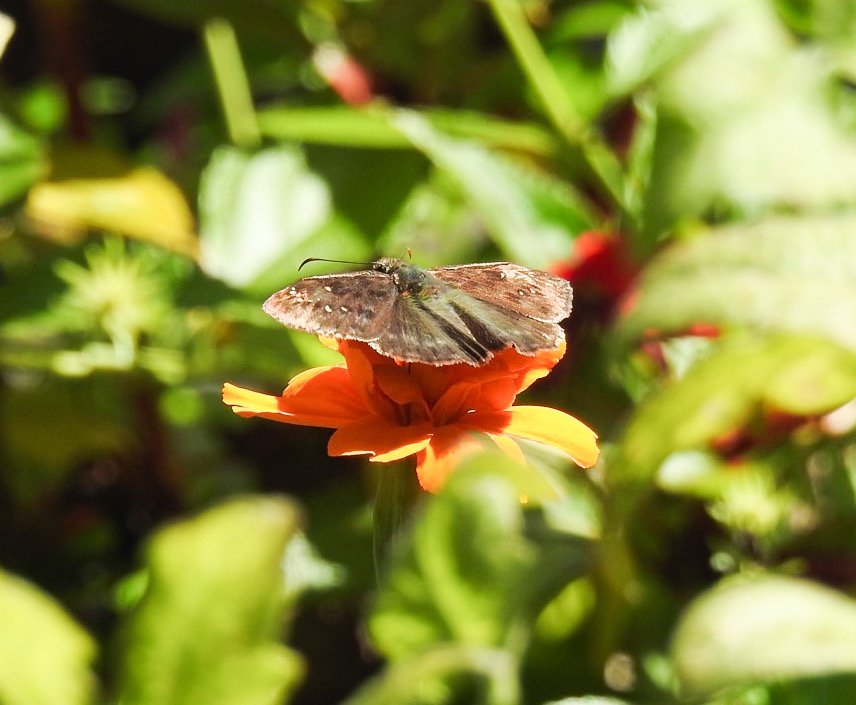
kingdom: Animalia
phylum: Arthropoda
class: Insecta
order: Lepidoptera
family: Hesperiidae
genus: Gesta
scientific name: Gesta
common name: Horace's Duskywing
